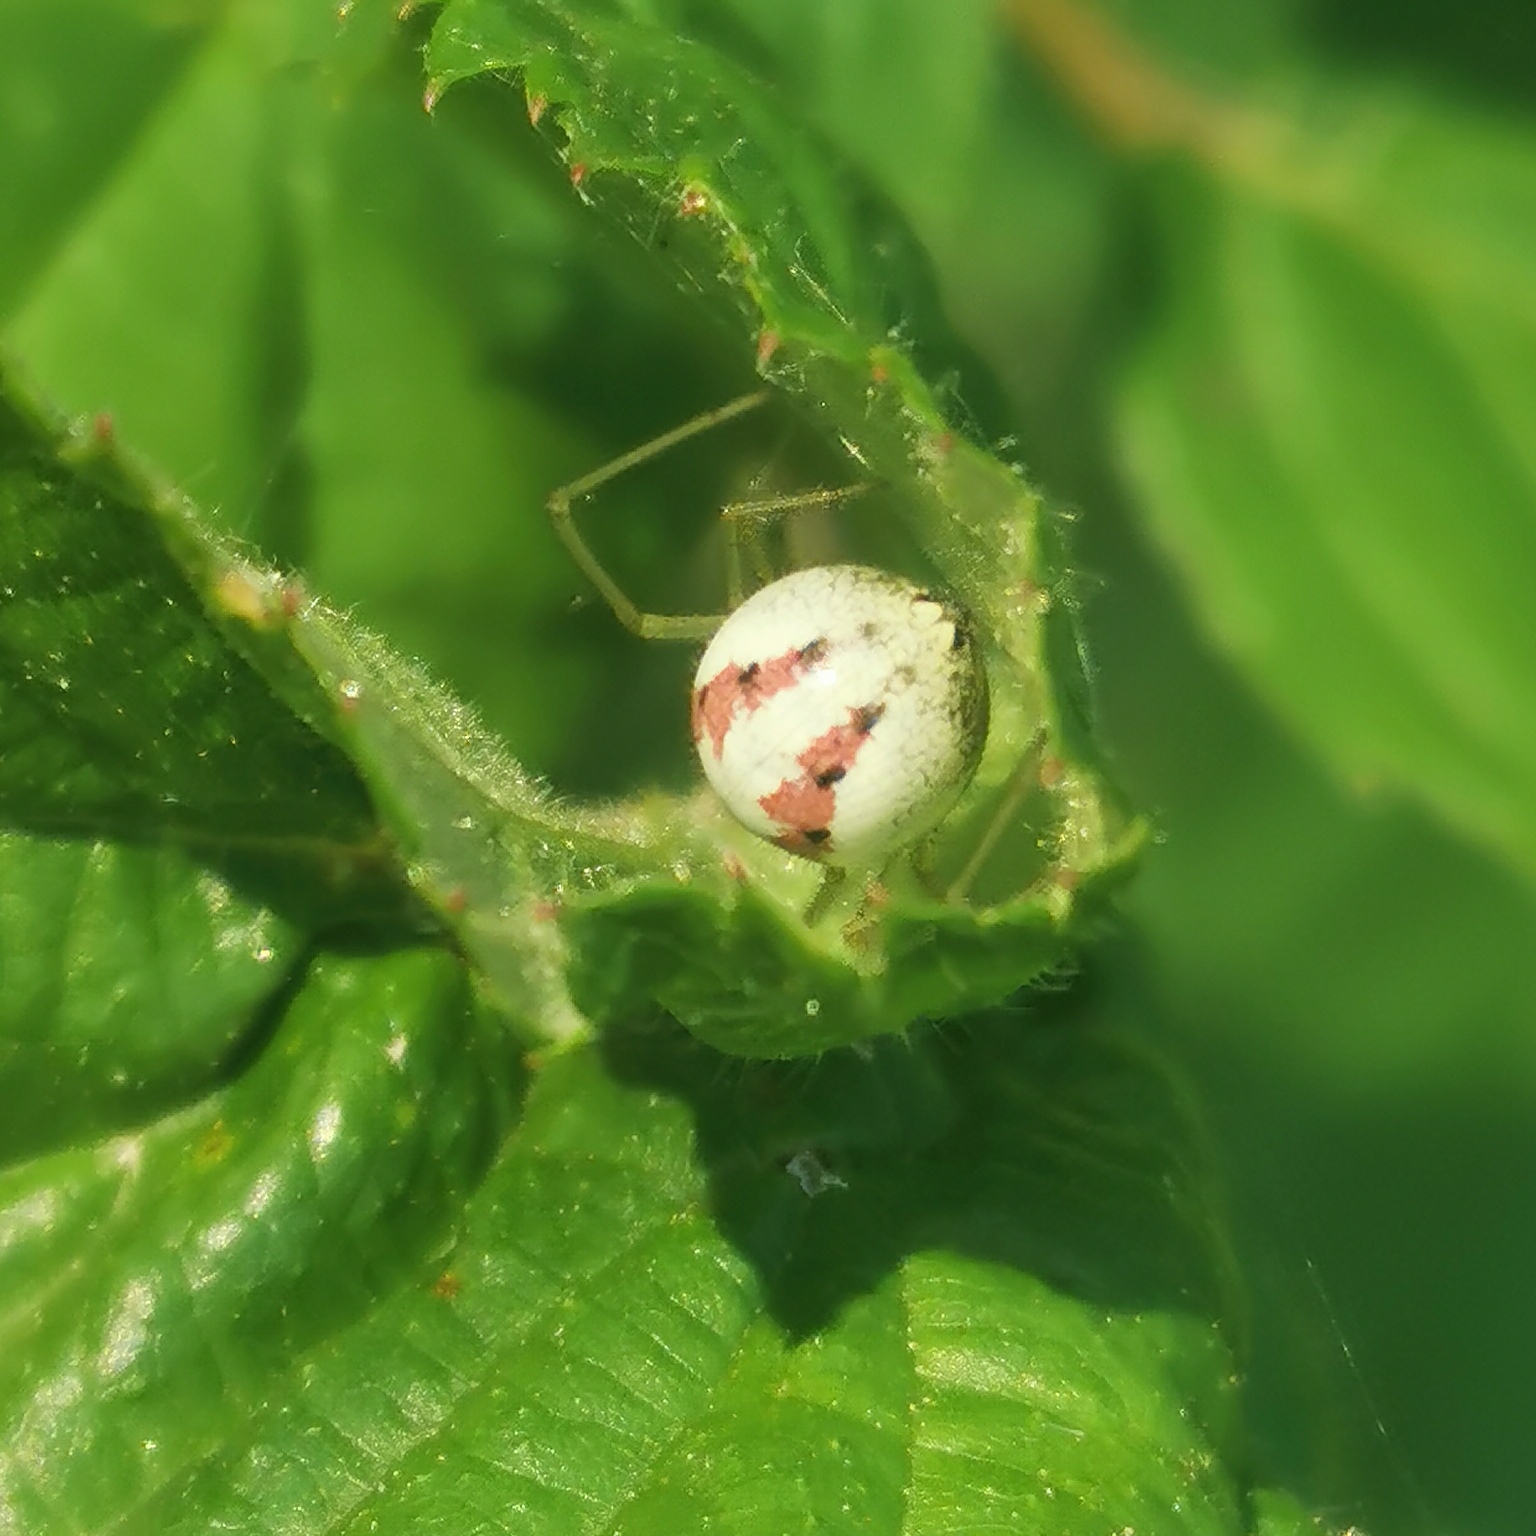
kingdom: Animalia
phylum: Arthropoda
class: Arachnida
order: Araneae
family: Theridiidae
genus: Enoplognatha
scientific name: Enoplognatha
